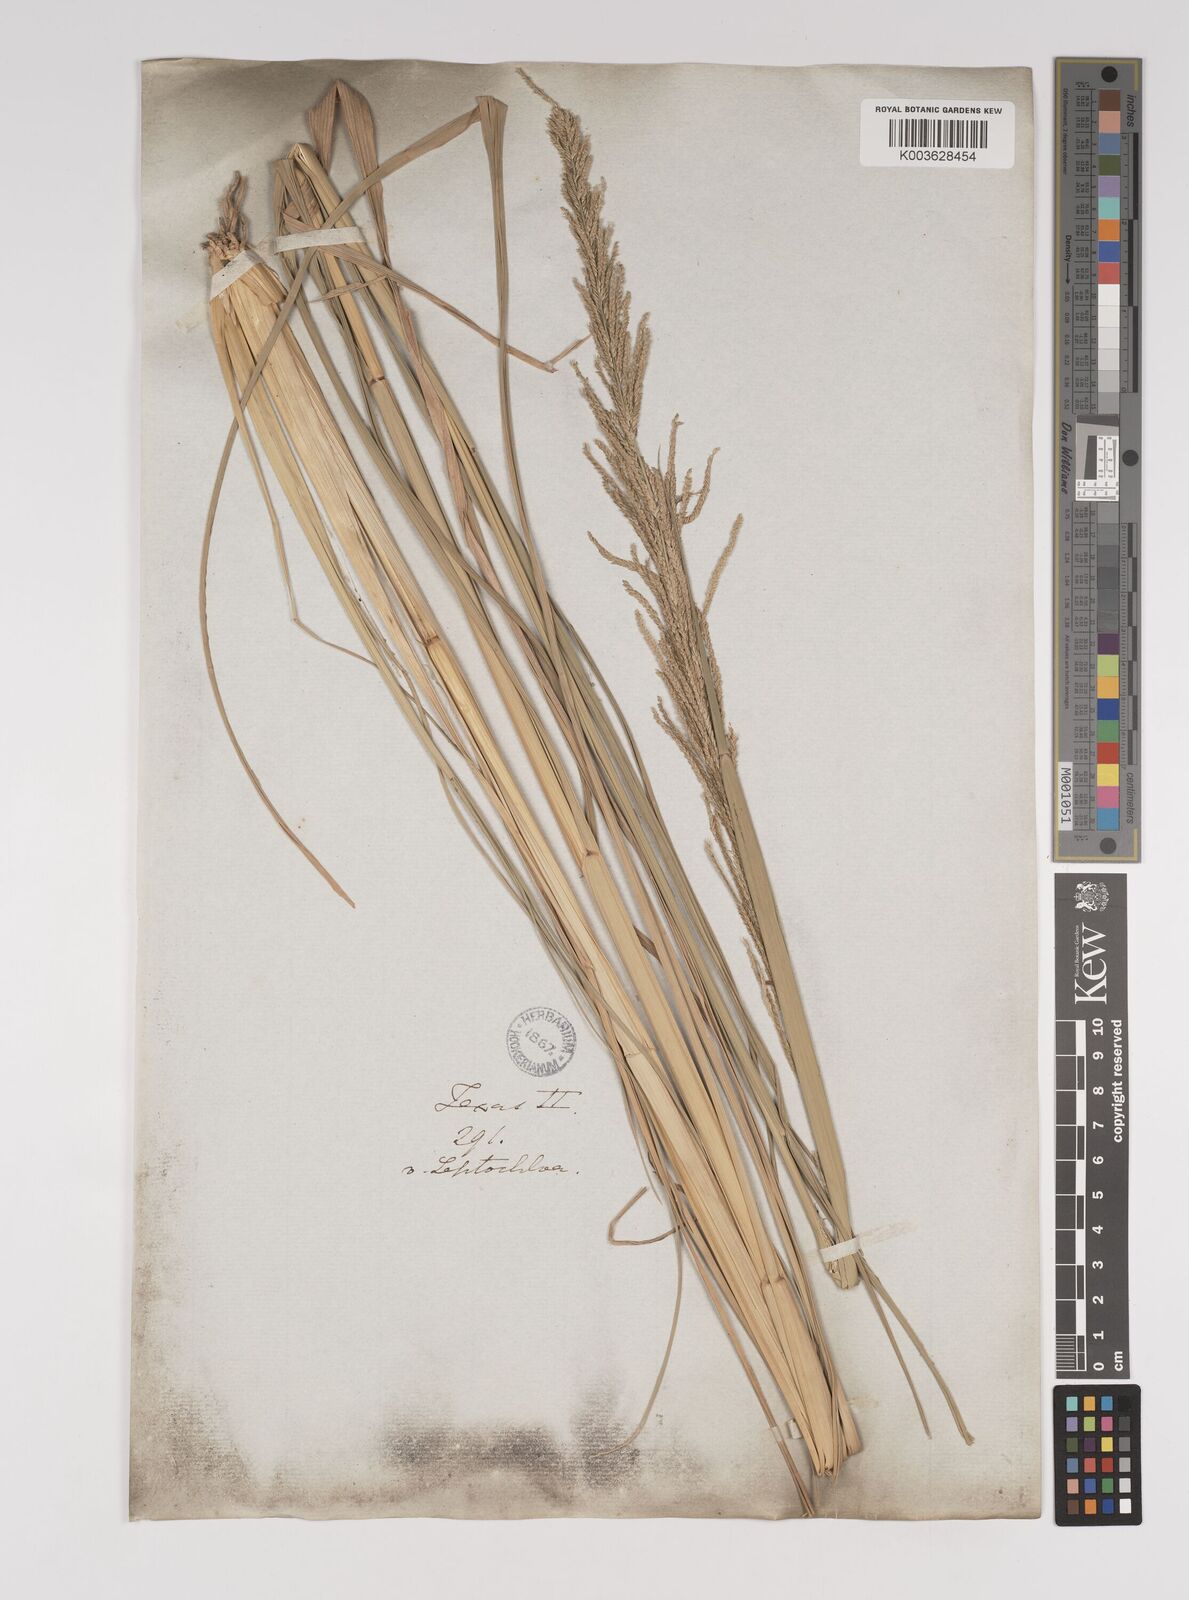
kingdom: Plantae
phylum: Tracheophyta
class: Liliopsida
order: Poales
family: Poaceae
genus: Leptochloa
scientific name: Leptochloa nealleyi
